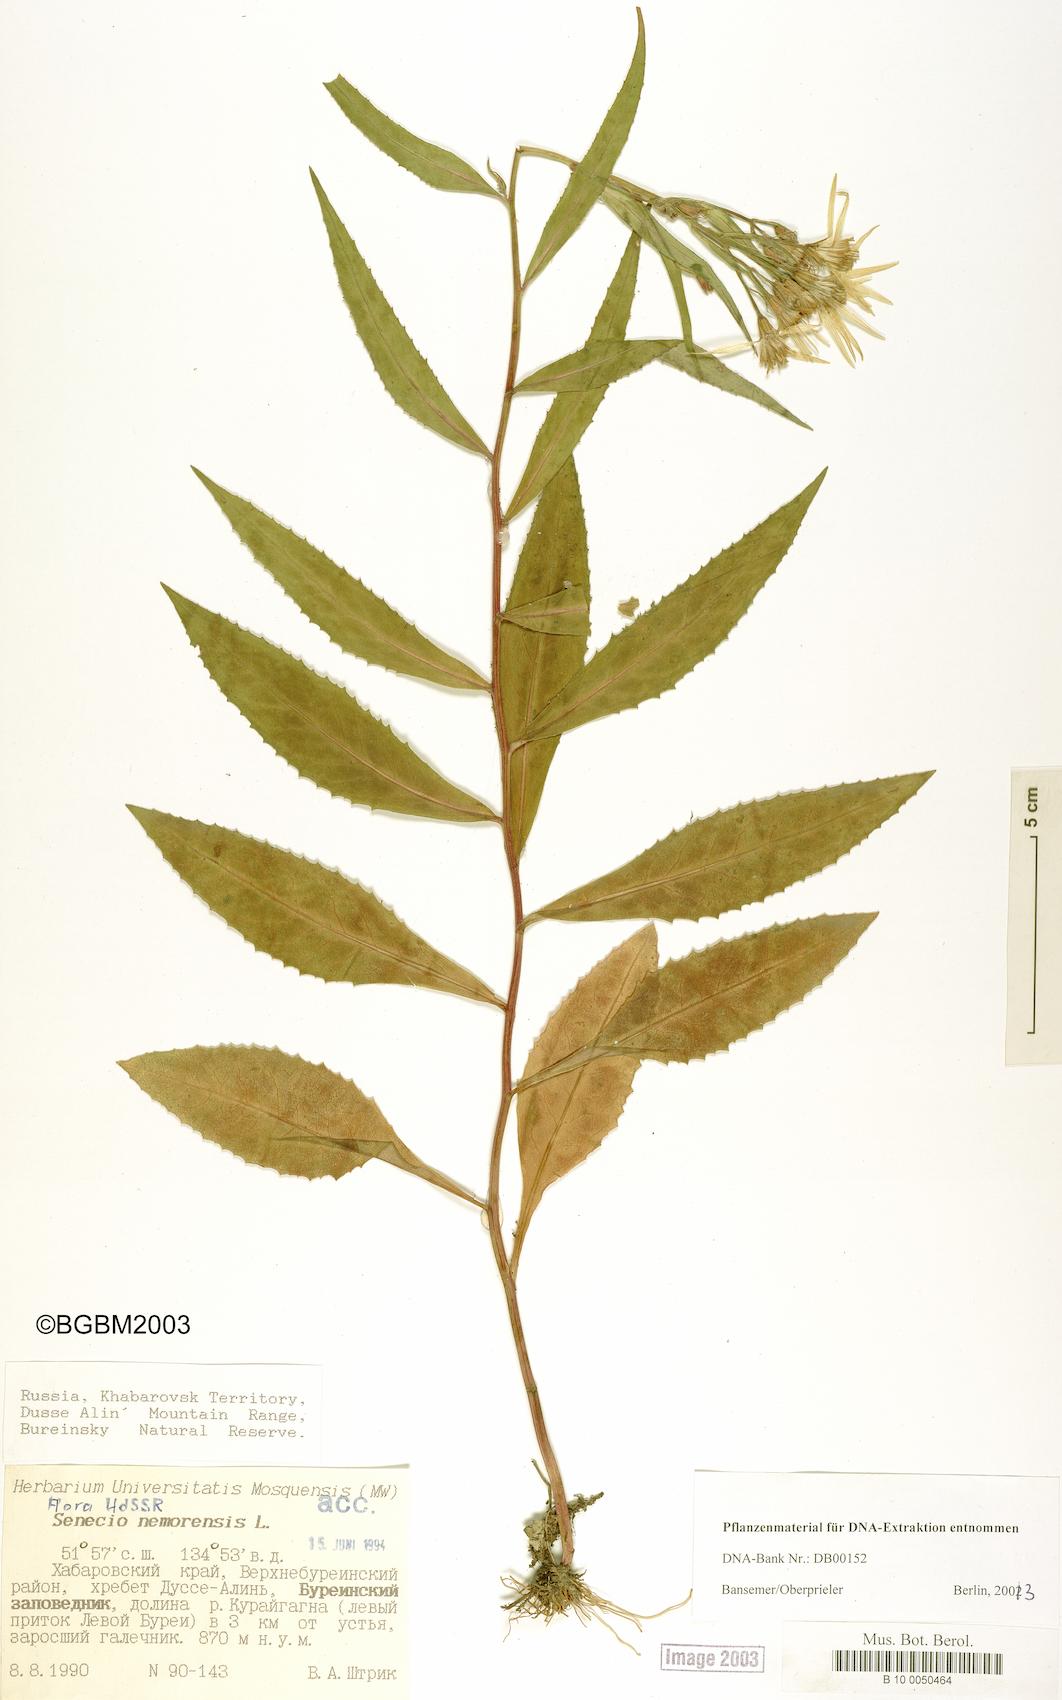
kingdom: Plantae
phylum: Tracheophyta
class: Magnoliopsida
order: Asterales
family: Asteraceae
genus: Senecio
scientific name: Senecio nemorensis
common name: Alpine ragwort
